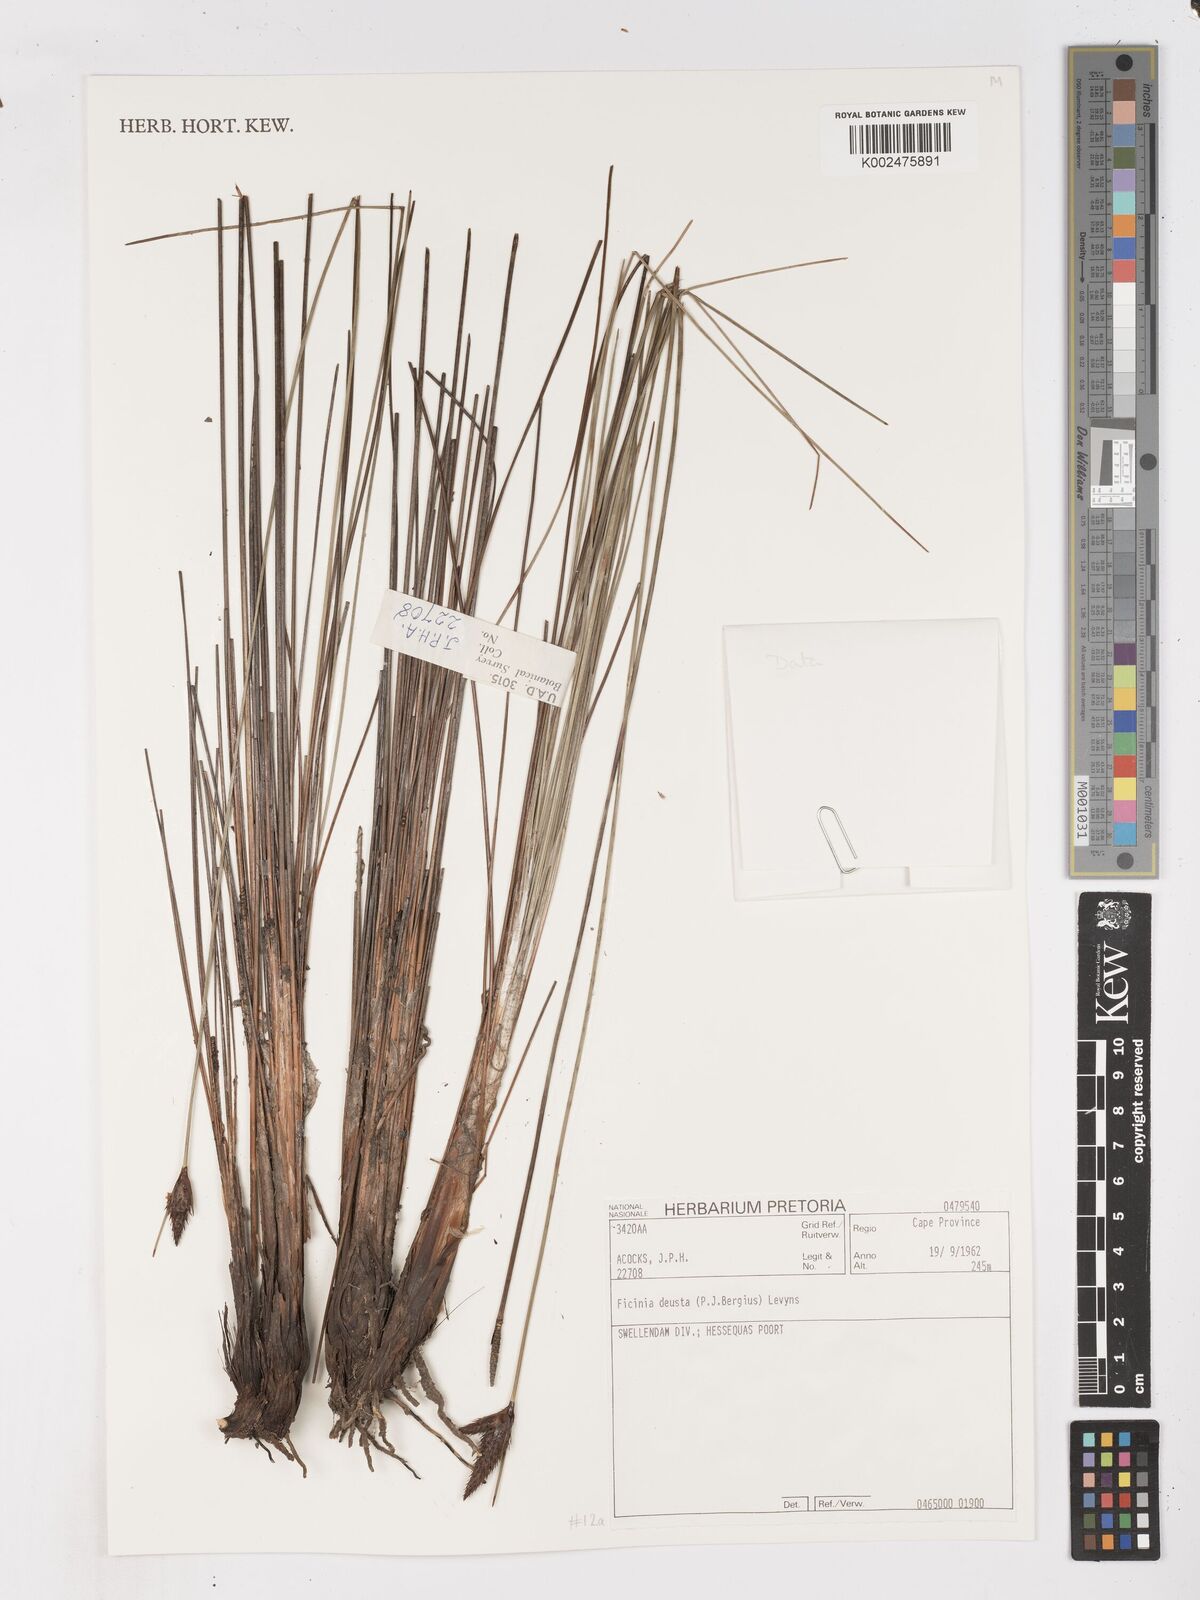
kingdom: Plantae
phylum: Tracheophyta
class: Liliopsida
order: Poales
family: Cyperaceae
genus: Ficinia
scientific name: Ficinia deusta
